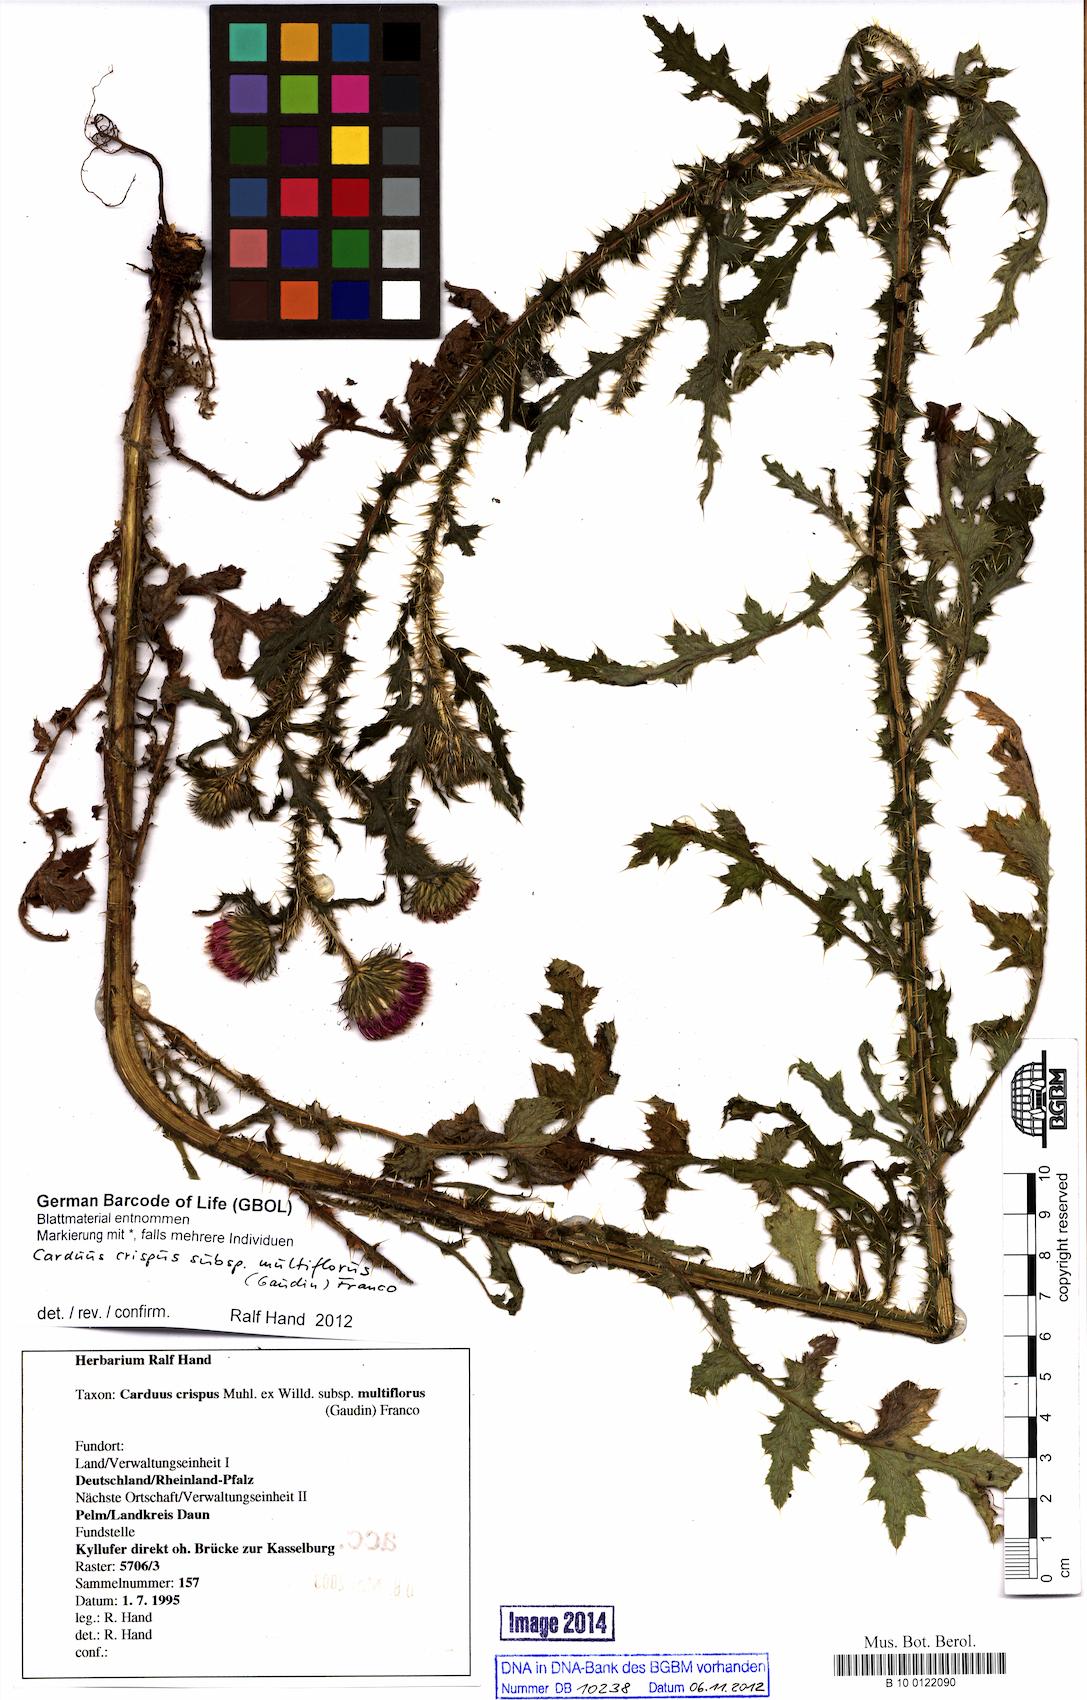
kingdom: Plantae
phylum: Tracheophyta
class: Magnoliopsida
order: Asterales
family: Asteraceae
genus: Carduus
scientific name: Carduus crispus
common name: Welted thistle
